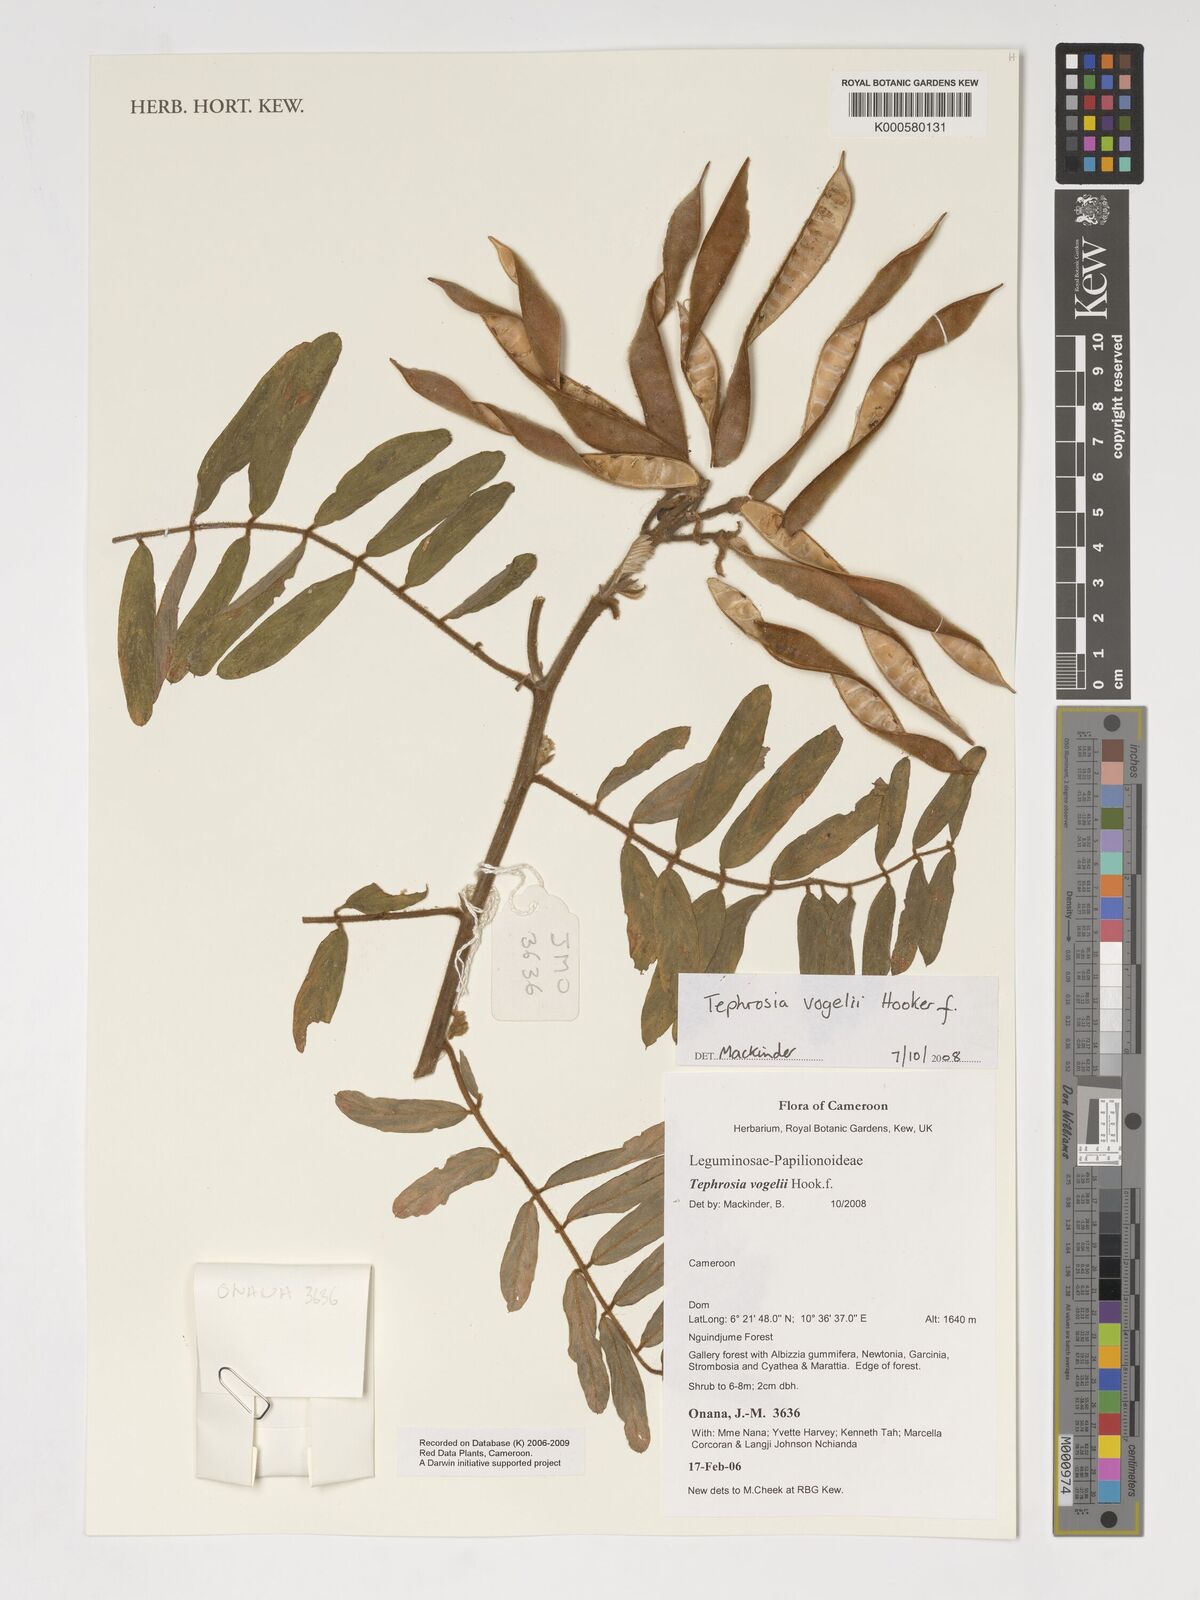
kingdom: Plantae
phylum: Tracheophyta
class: Magnoliopsida
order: Fabales
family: Fabaceae
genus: Tephrosia
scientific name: Tephrosia vogelii
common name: Vogel tephrosia
